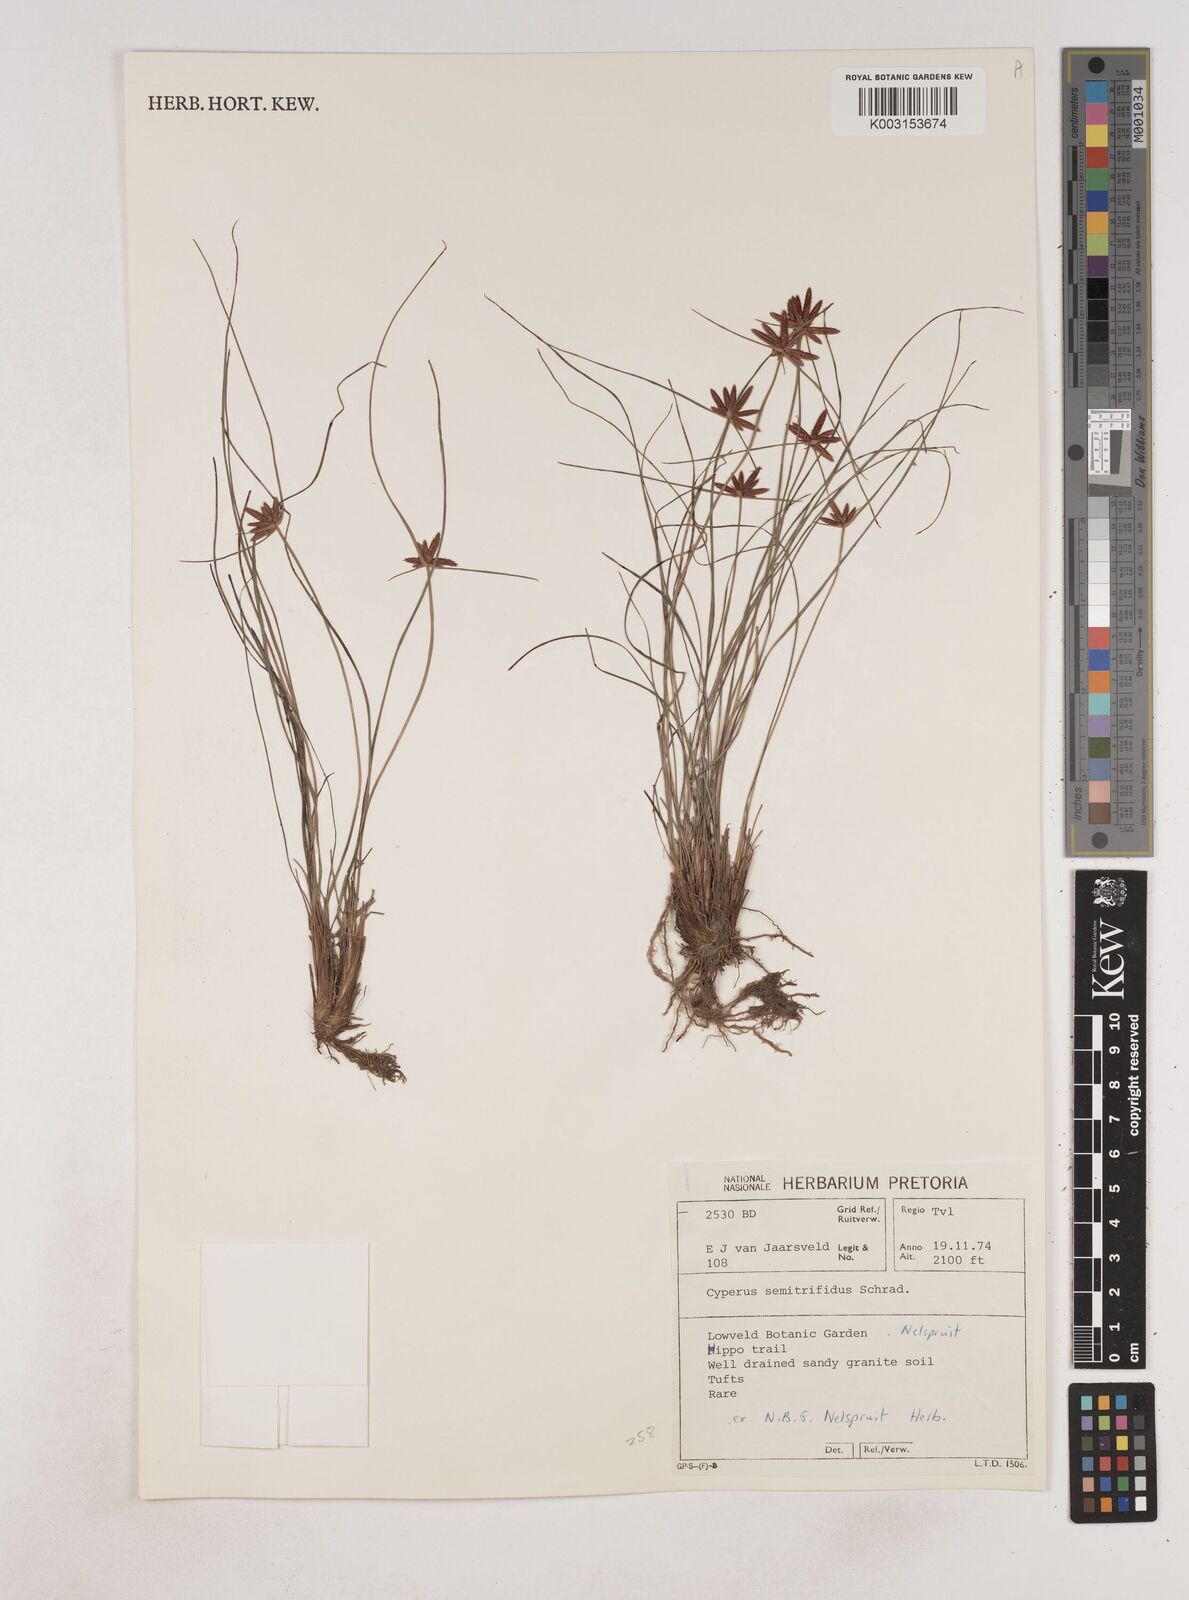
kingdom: Plantae
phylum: Tracheophyta
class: Liliopsida
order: Poales
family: Cyperaceae
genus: Cyperus
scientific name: Cyperus semitrifidus
